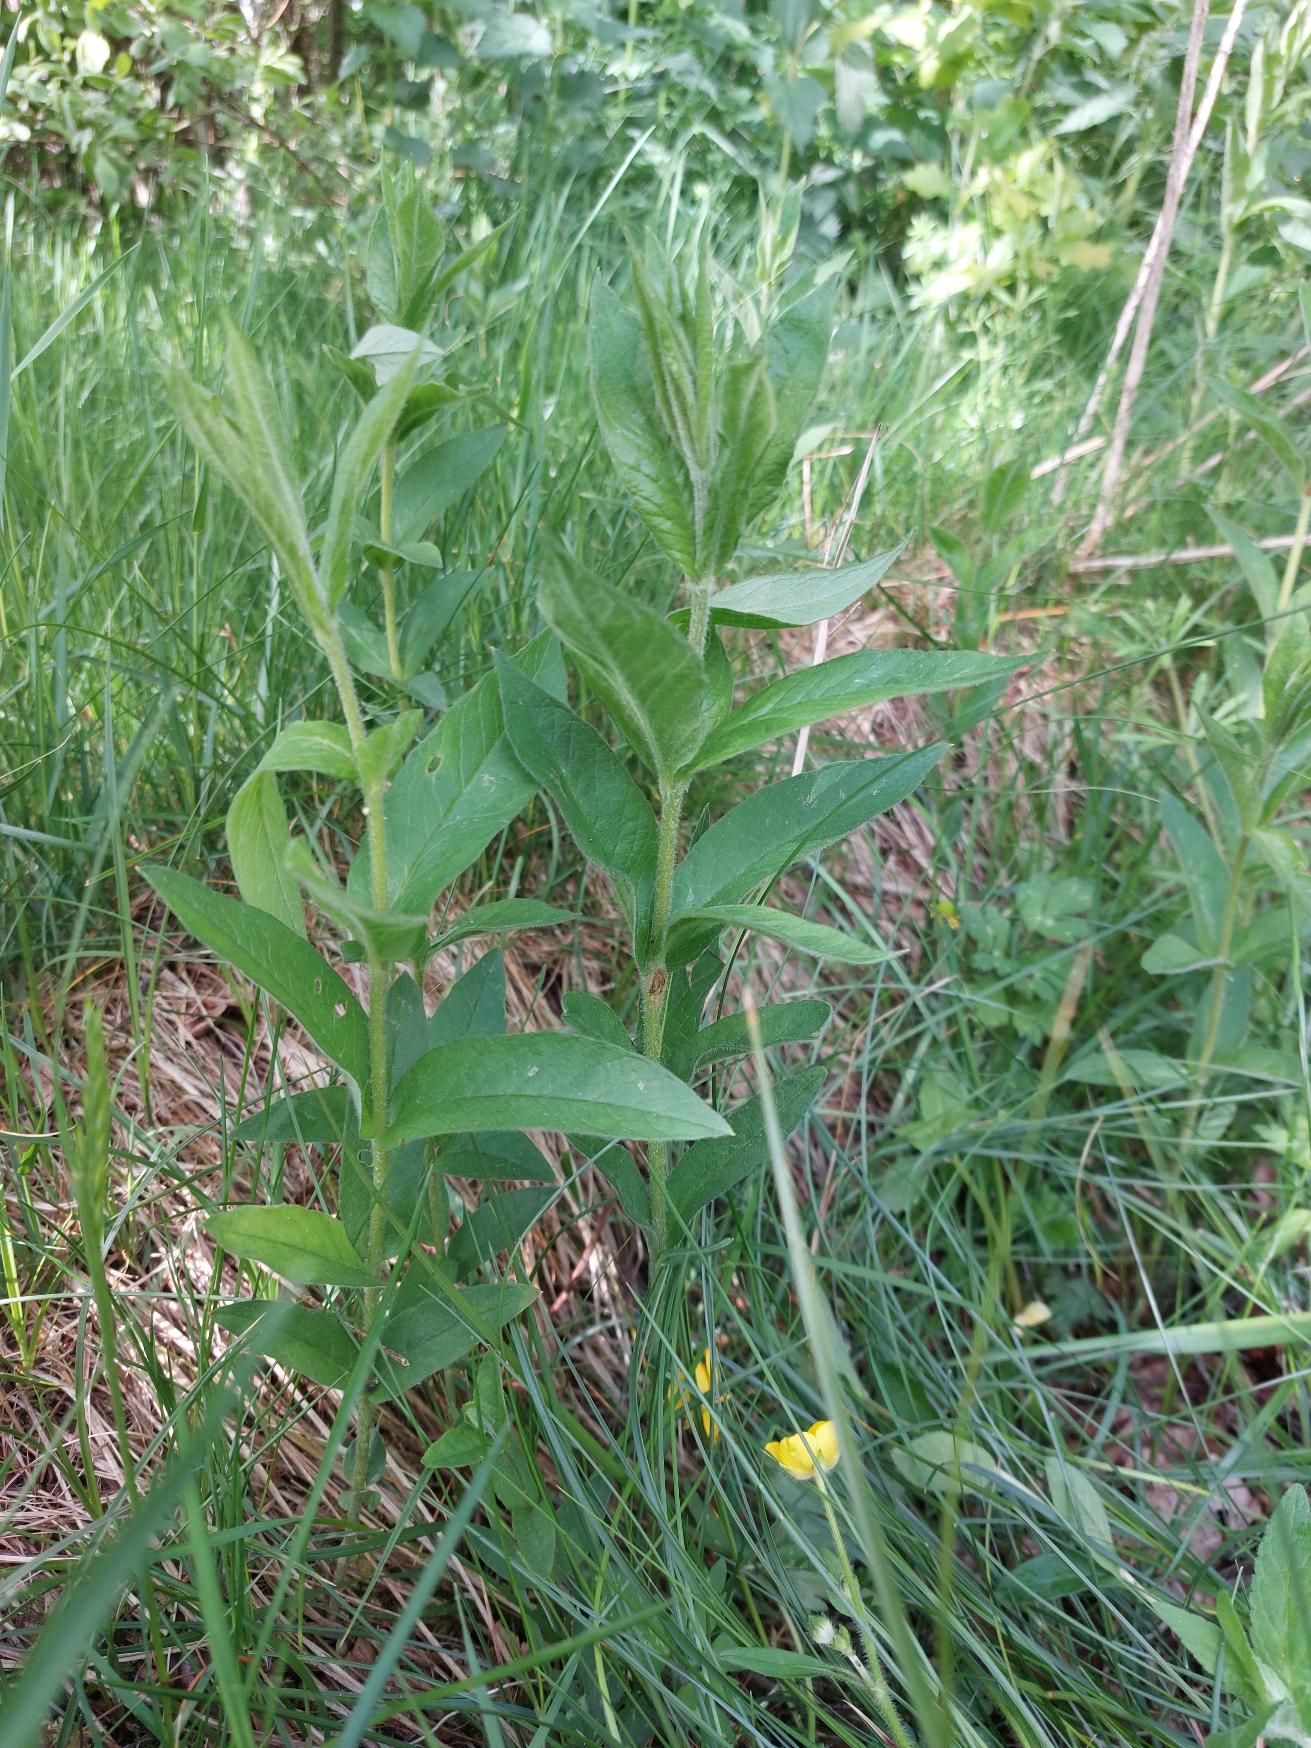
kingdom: Plantae
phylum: Tracheophyta
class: Magnoliopsida
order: Ericales
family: Primulaceae
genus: Lysimachia
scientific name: Lysimachia vulgaris
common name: Almindelig fredløs
